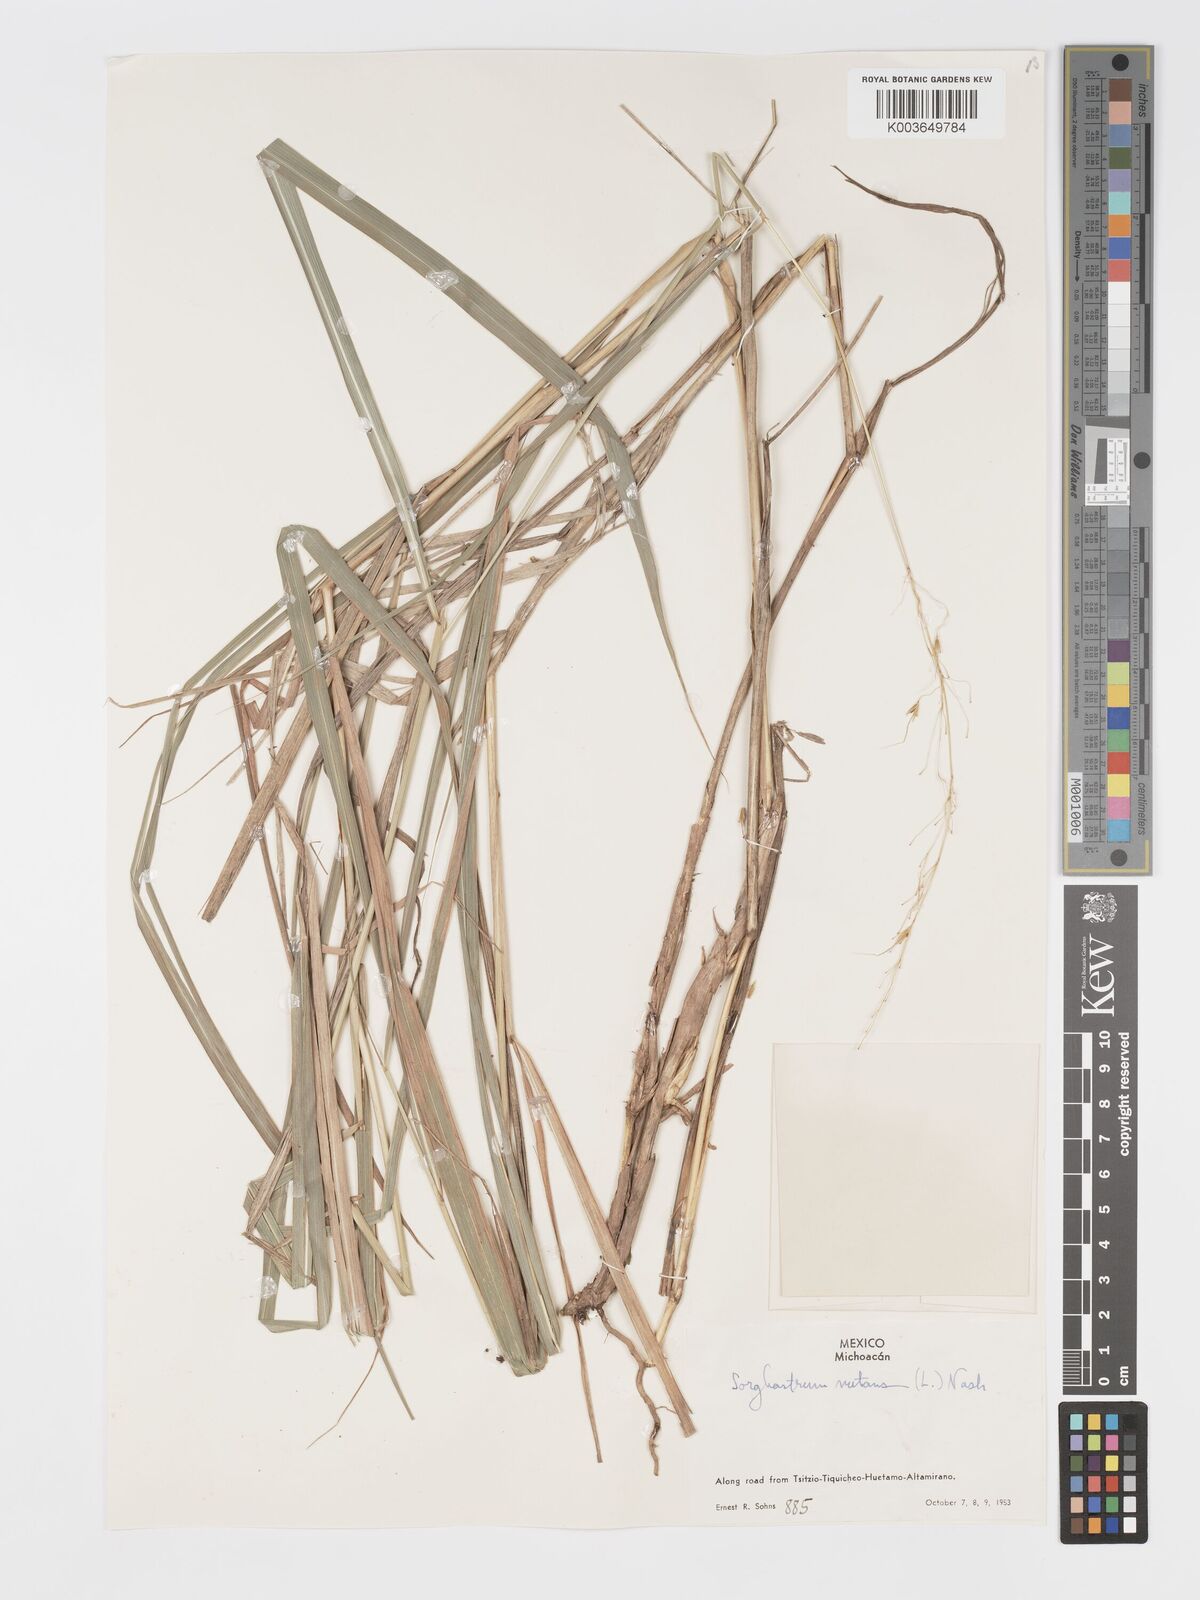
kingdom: Plantae
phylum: Tracheophyta
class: Liliopsida
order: Poales
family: Poaceae
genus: Sorghastrum
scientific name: Sorghastrum nutans
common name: Indian grass
